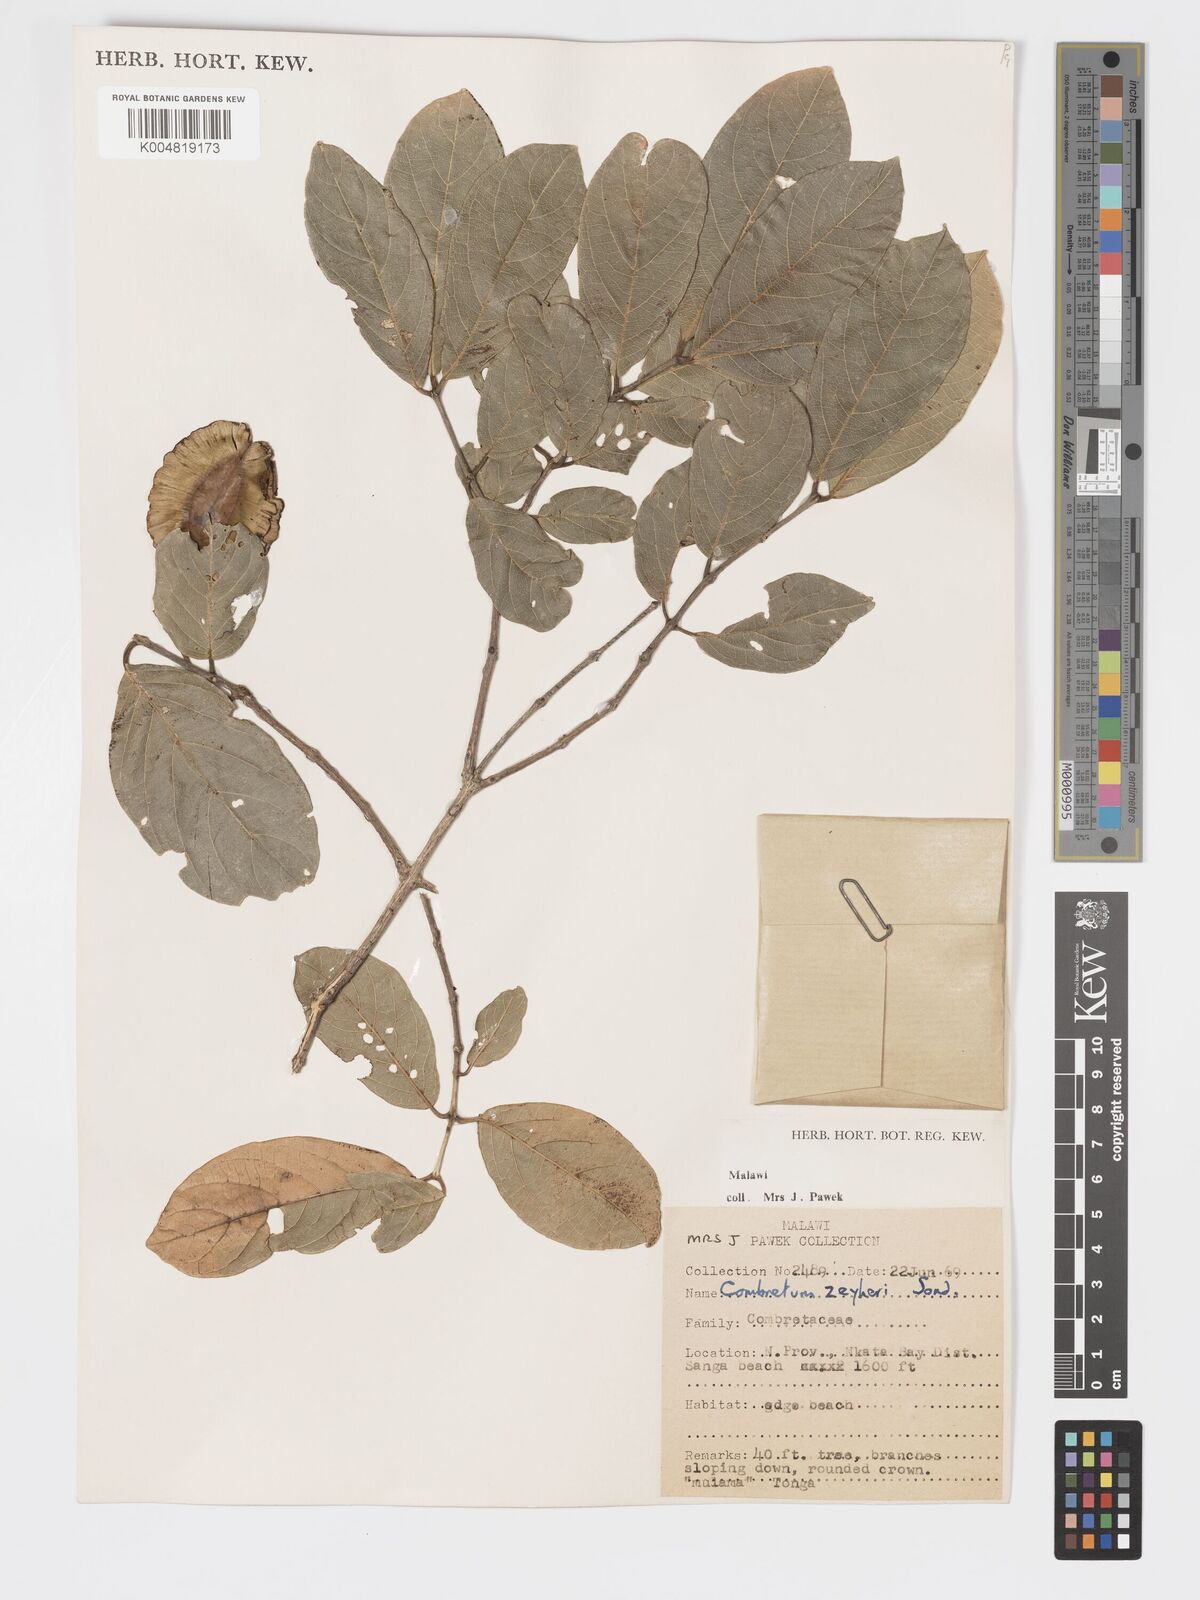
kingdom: Plantae
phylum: Tracheophyta
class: Magnoliopsida
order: Myrtales
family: Combretaceae
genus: Combretum
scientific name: Combretum zeyheri
